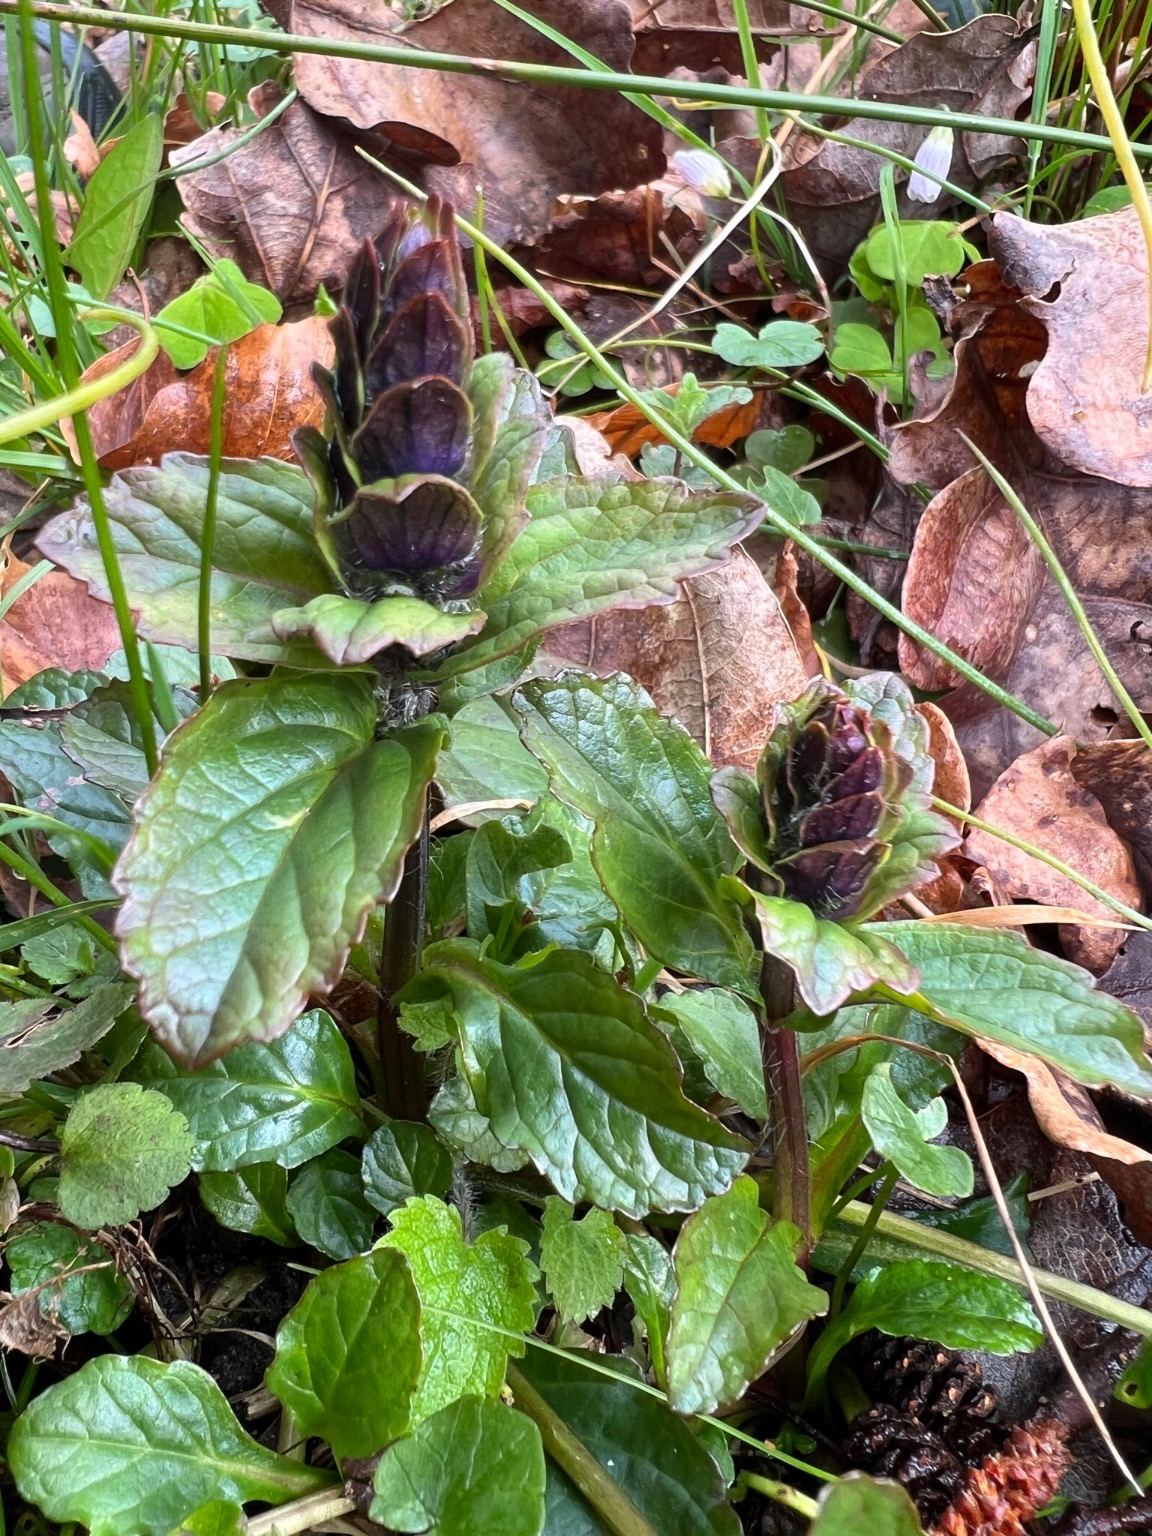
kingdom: Plantae
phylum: Tracheophyta
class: Magnoliopsida
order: Lamiales
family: Lamiaceae
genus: Ajuga
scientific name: Ajuga reptans
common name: Krybende læbeløs
